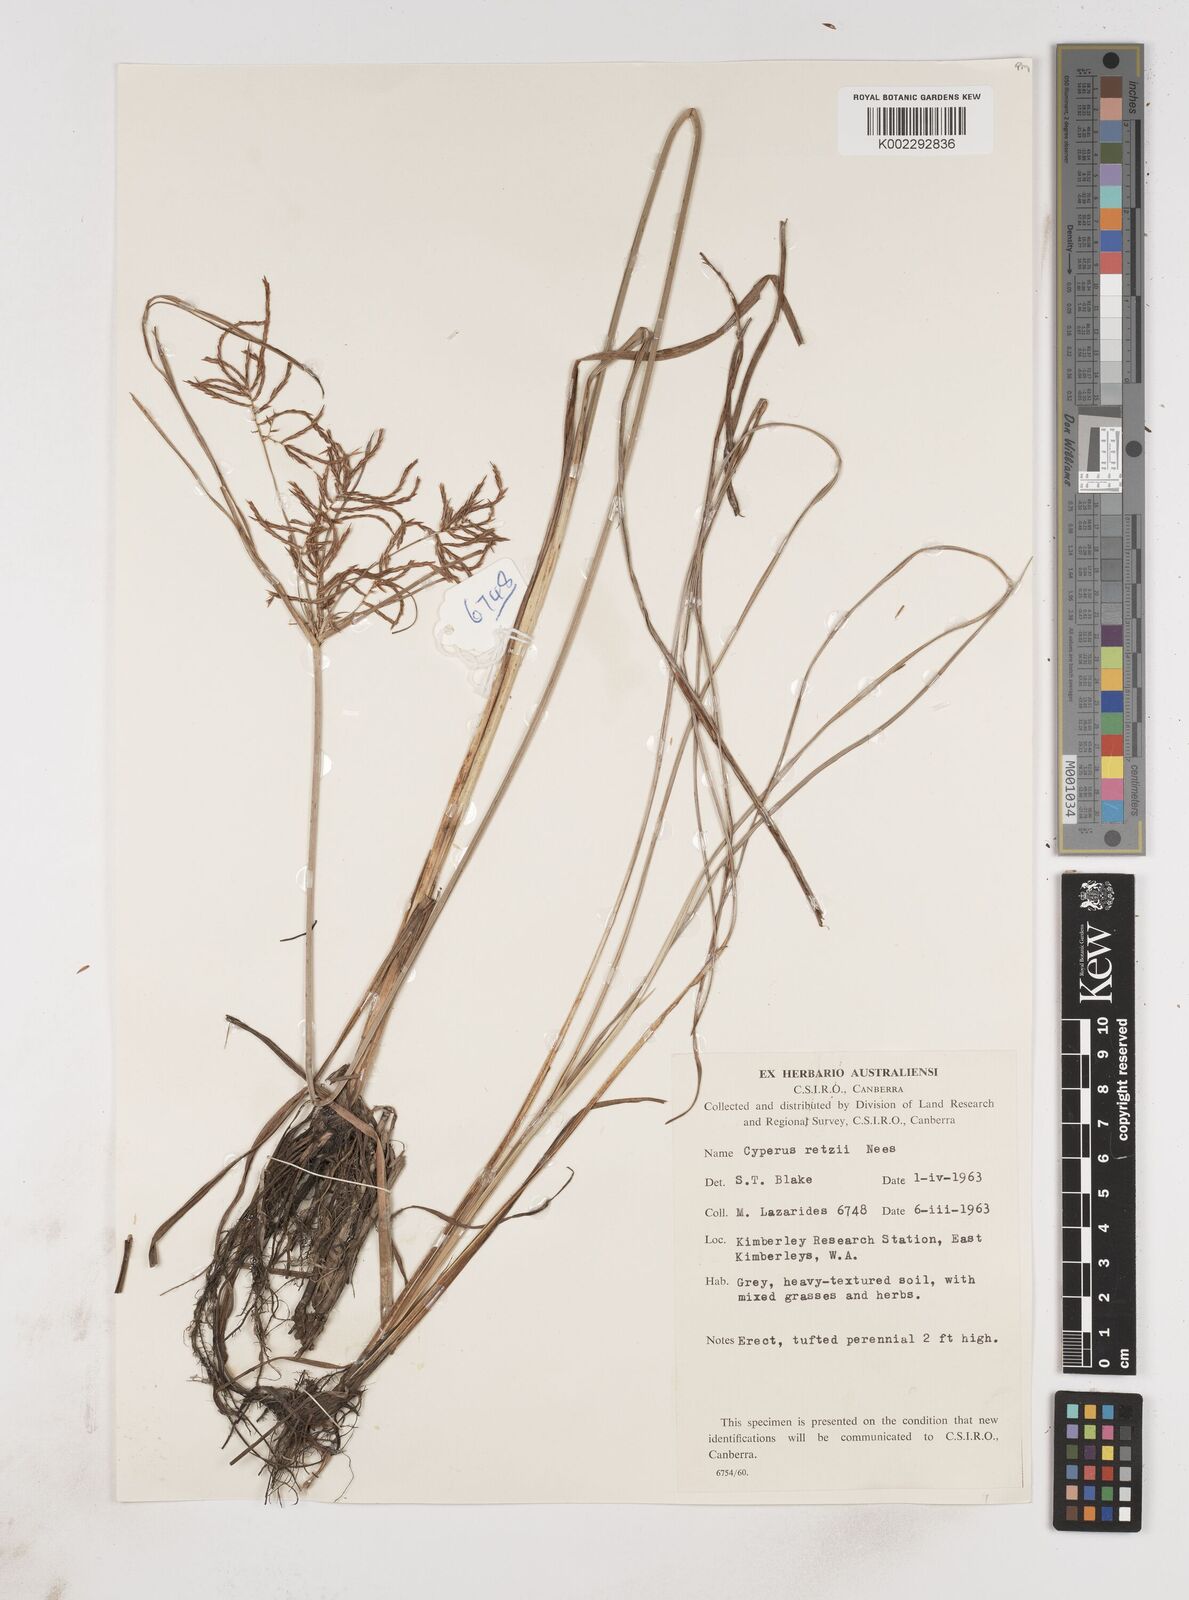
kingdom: Plantae
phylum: Tracheophyta
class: Liliopsida
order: Poales
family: Cyperaceae
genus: Cyperus
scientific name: Cyperus bifax
